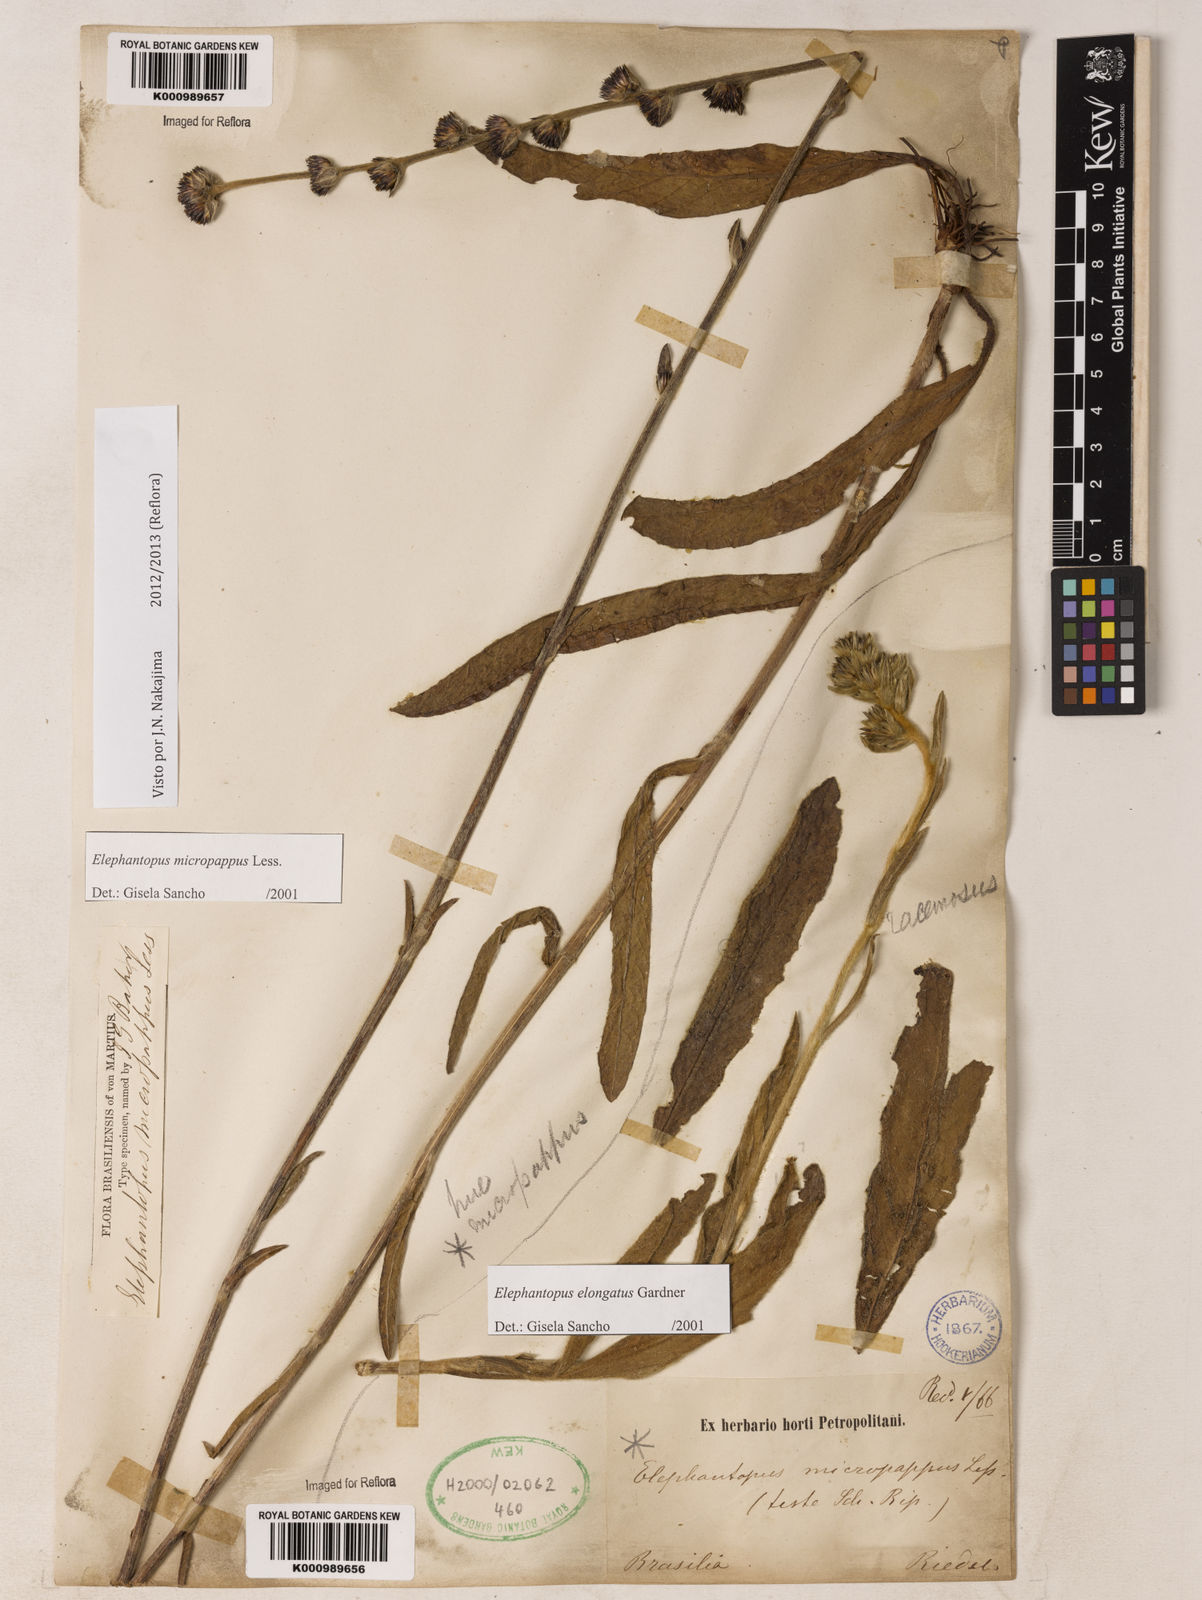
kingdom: Plantae
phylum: Tracheophyta
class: Magnoliopsida
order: Asterales
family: Asteraceae
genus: Elephantopus
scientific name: Elephantopus micropappus
